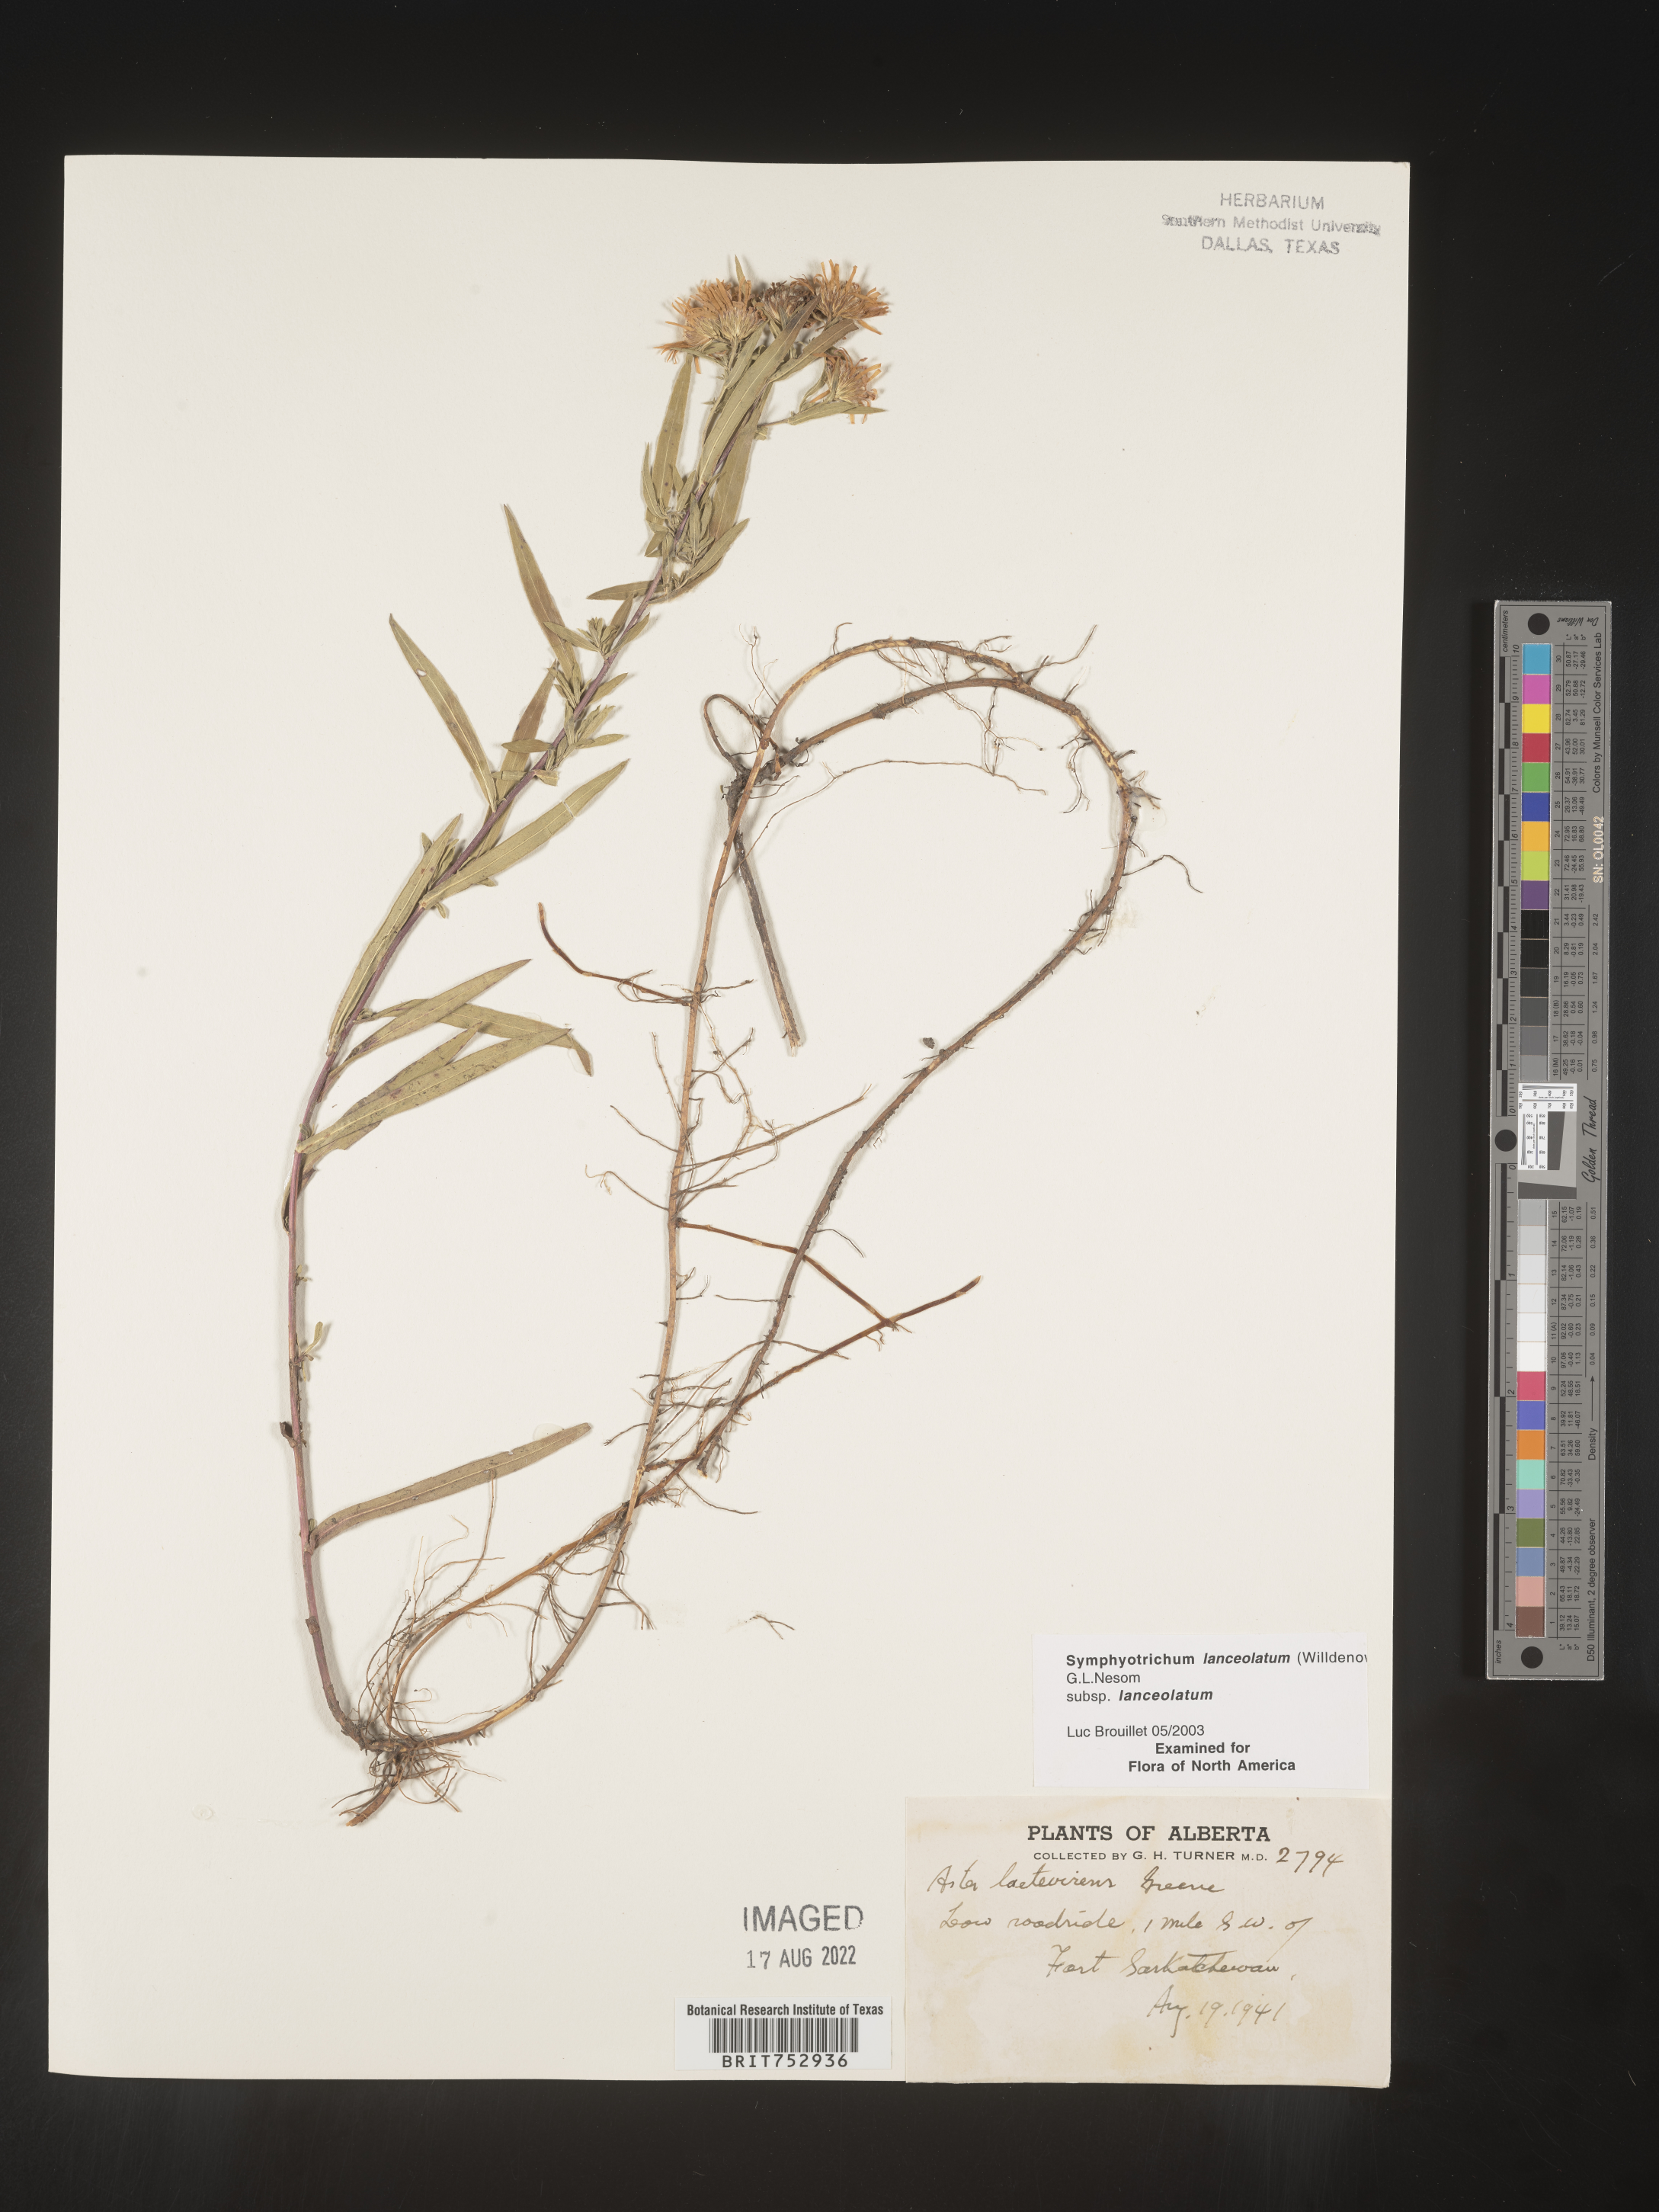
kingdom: Plantae
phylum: Tracheophyta
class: Magnoliopsida
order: Asterales
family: Asteraceae
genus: Symphyotrichum
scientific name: Symphyotrichum lanceolatum
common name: Panicled aster
